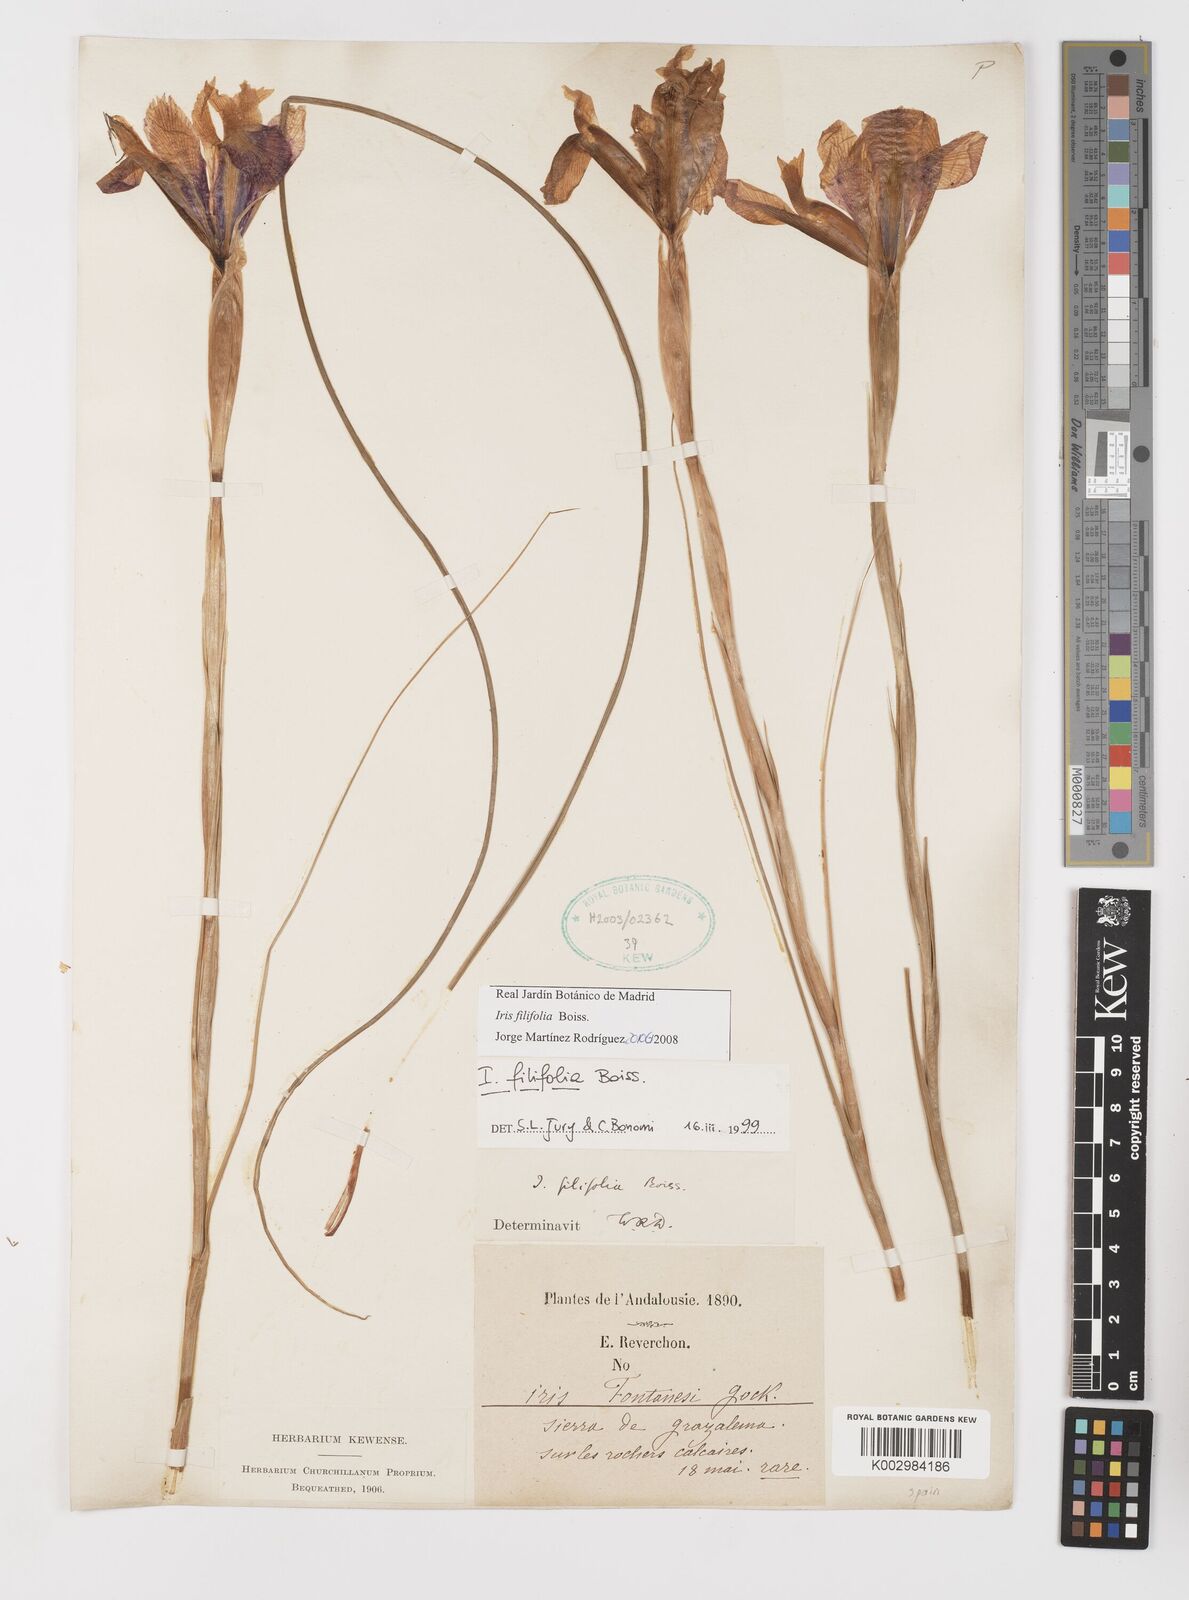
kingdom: Plantae
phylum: Tracheophyta
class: Liliopsida
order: Asparagales
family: Iridaceae
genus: Iris
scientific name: Iris filifolia
